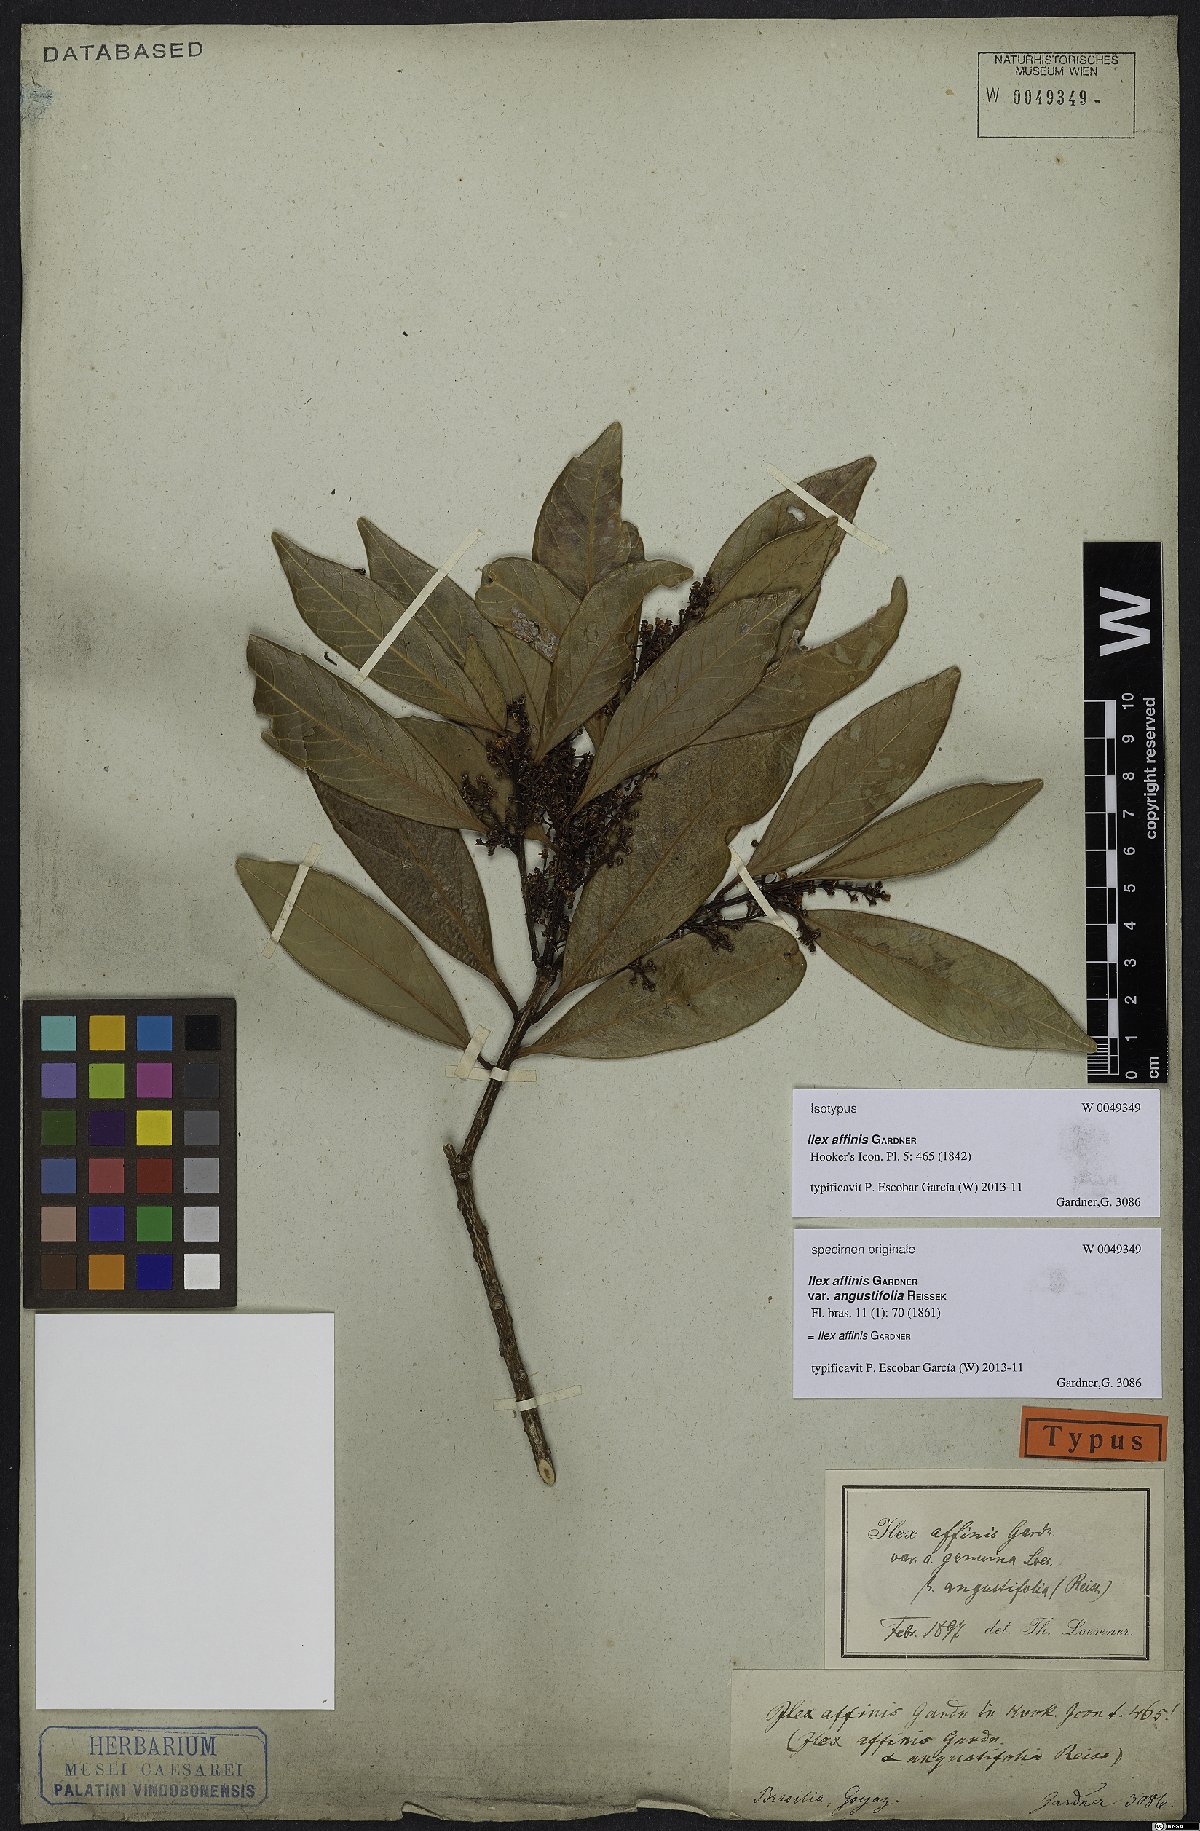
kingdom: Plantae
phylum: Tracheophyta
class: Magnoliopsida
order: Aquifoliales
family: Aquifoliaceae
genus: Ilex
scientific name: Ilex affinis
